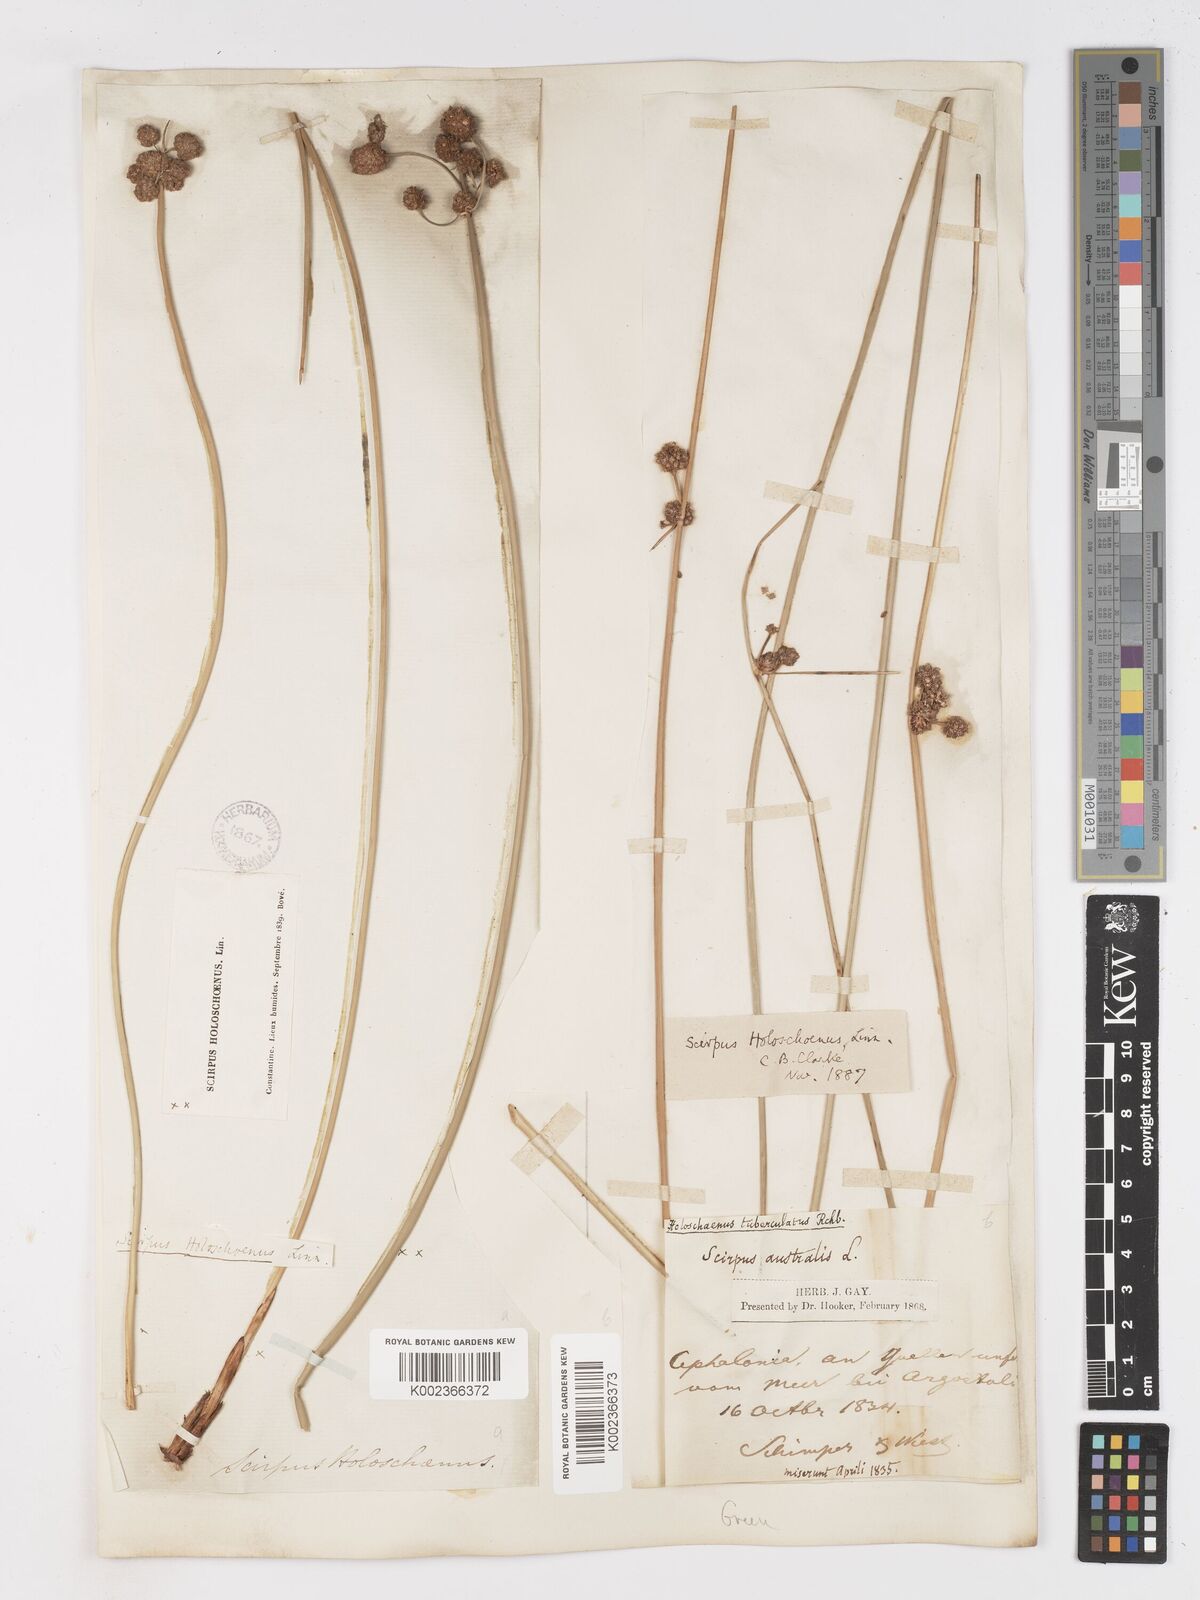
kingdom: Plantae
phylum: Tracheophyta
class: Liliopsida
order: Poales
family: Cyperaceae
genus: Scirpoides
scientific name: Scirpoides holoschoenus
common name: Round-headed club-rush
